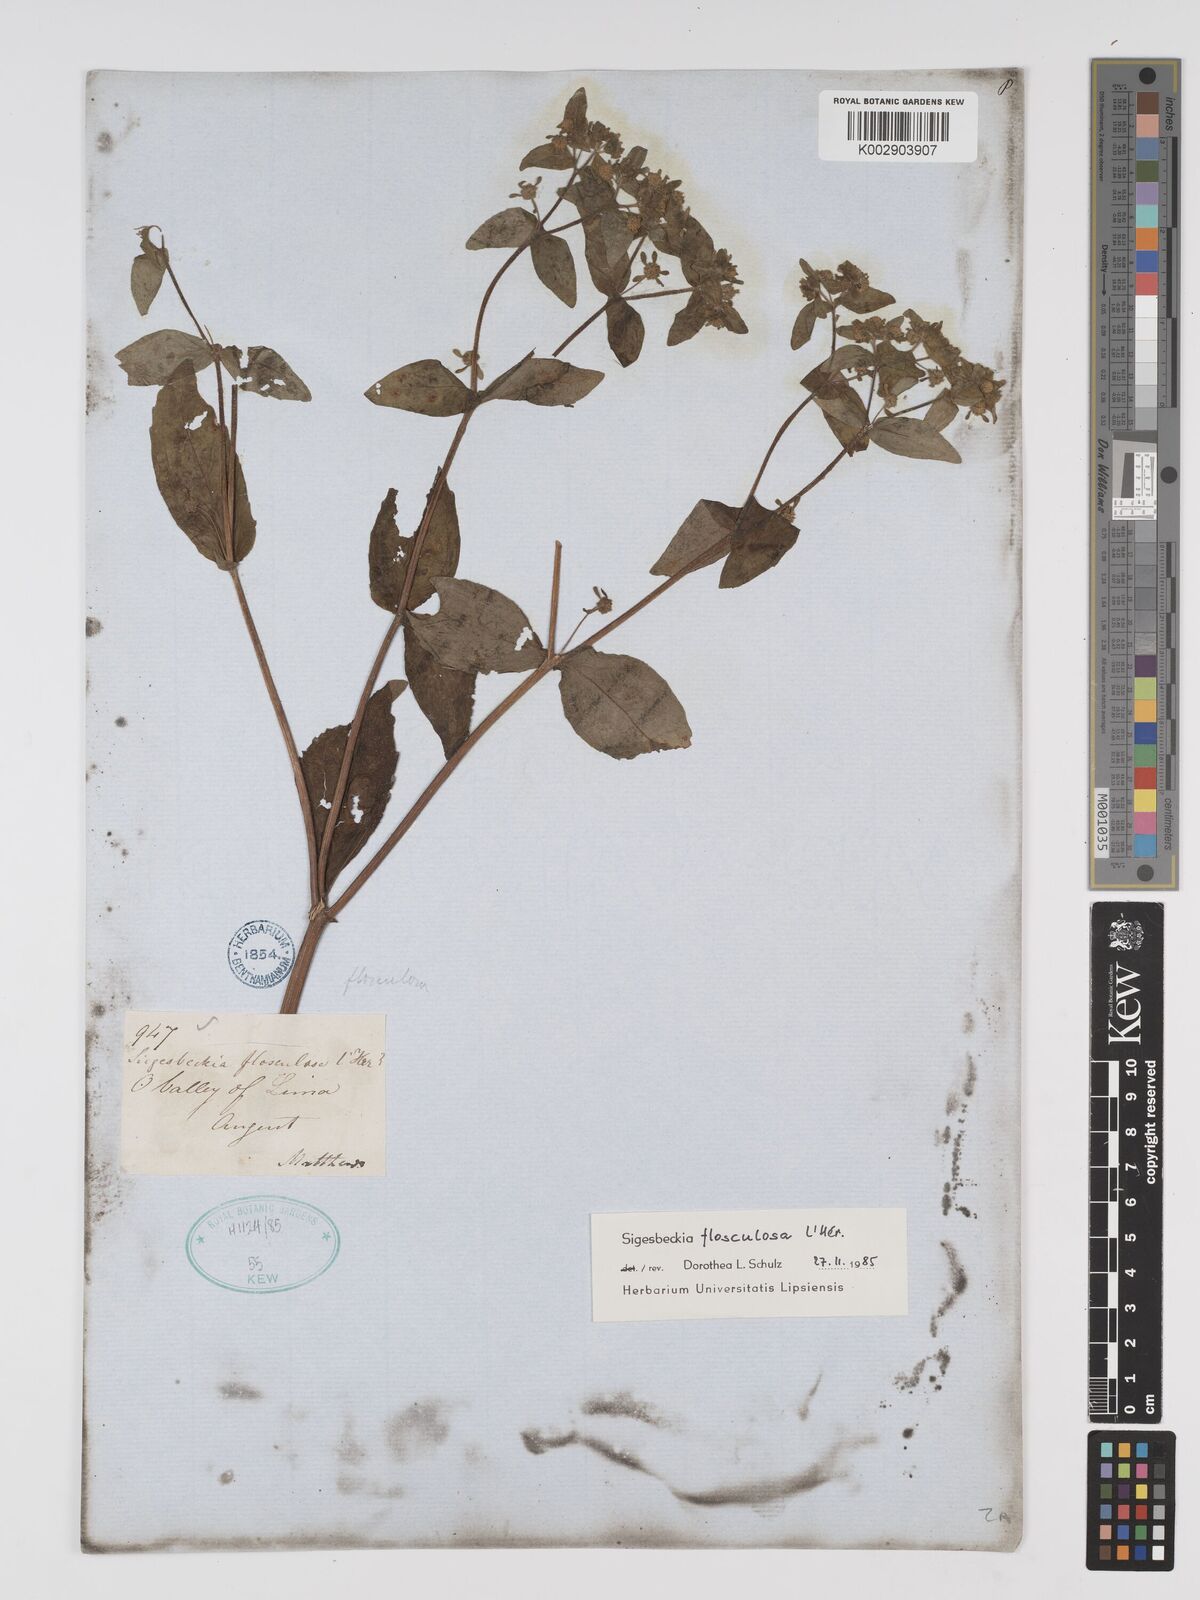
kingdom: Plantae
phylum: Tracheophyta
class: Magnoliopsida
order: Asterales
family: Asteraceae
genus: Sigesbeckia
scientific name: Sigesbeckia flosculosa
